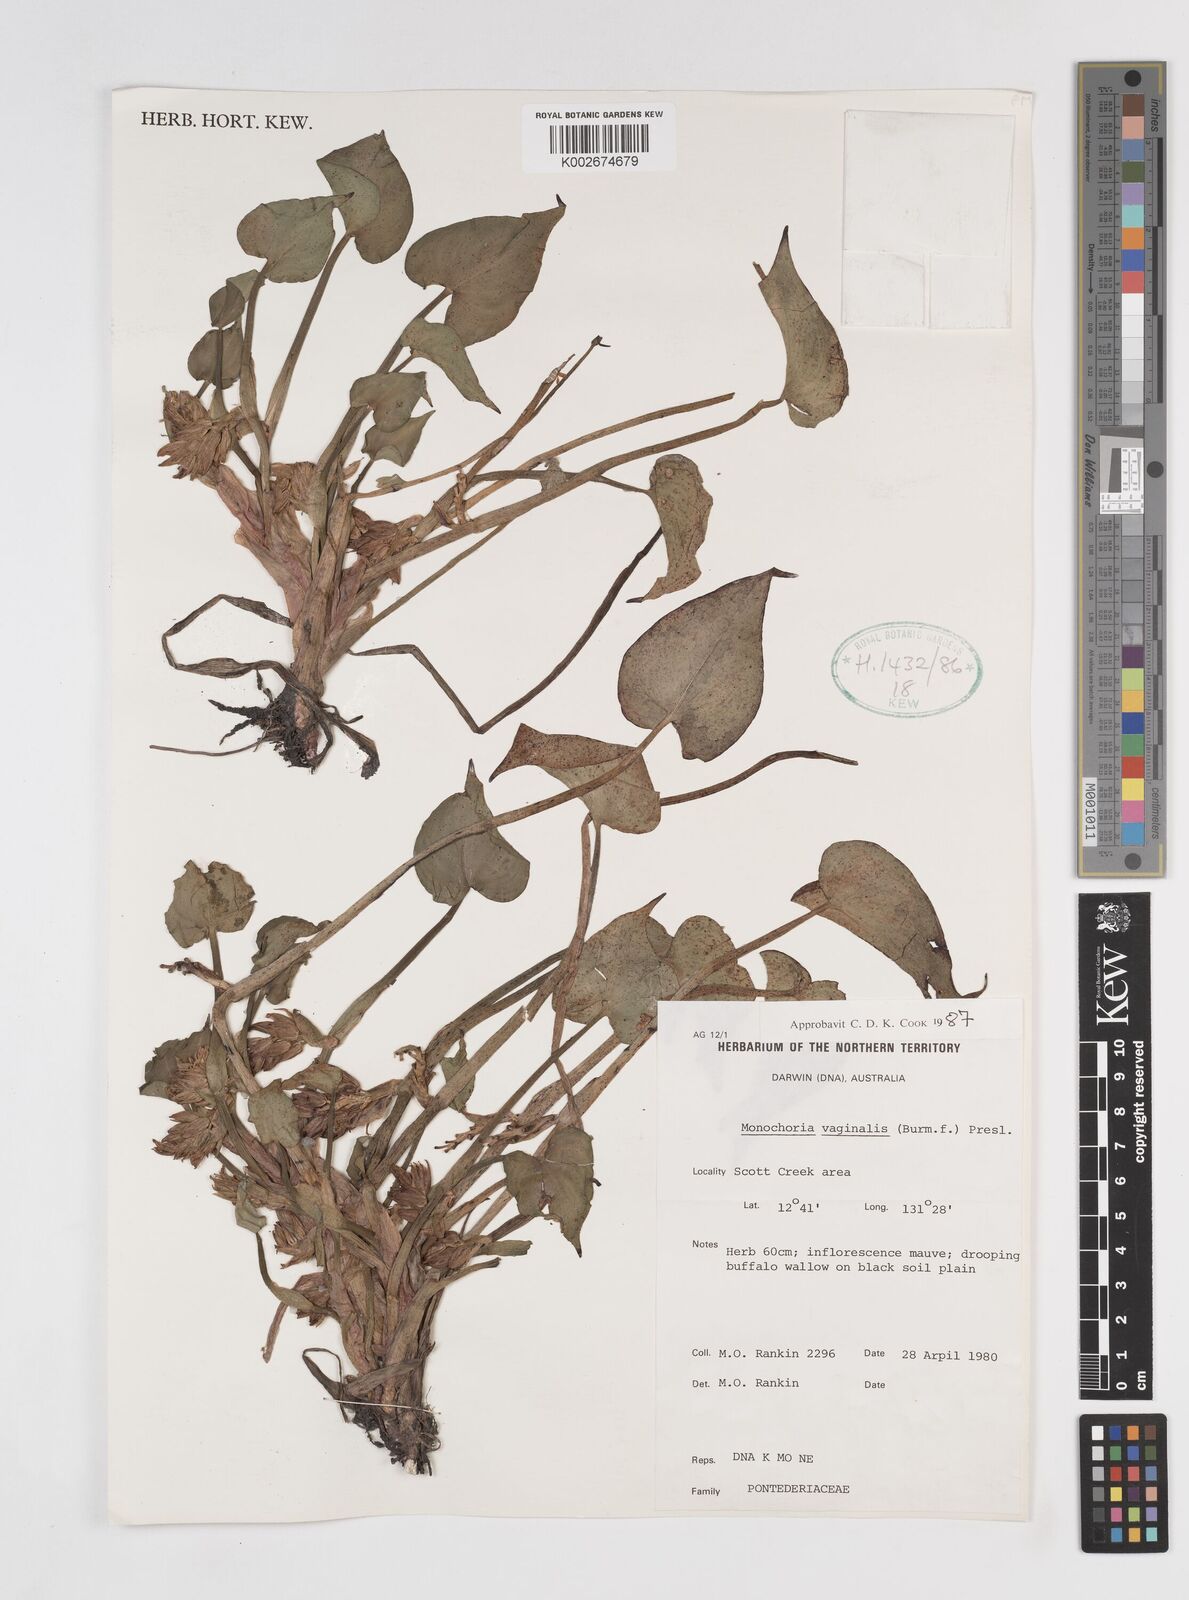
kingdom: Plantae
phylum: Tracheophyta
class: Liliopsida
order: Commelinales
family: Pontederiaceae
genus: Pontederia
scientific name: Pontederia vaginalis
